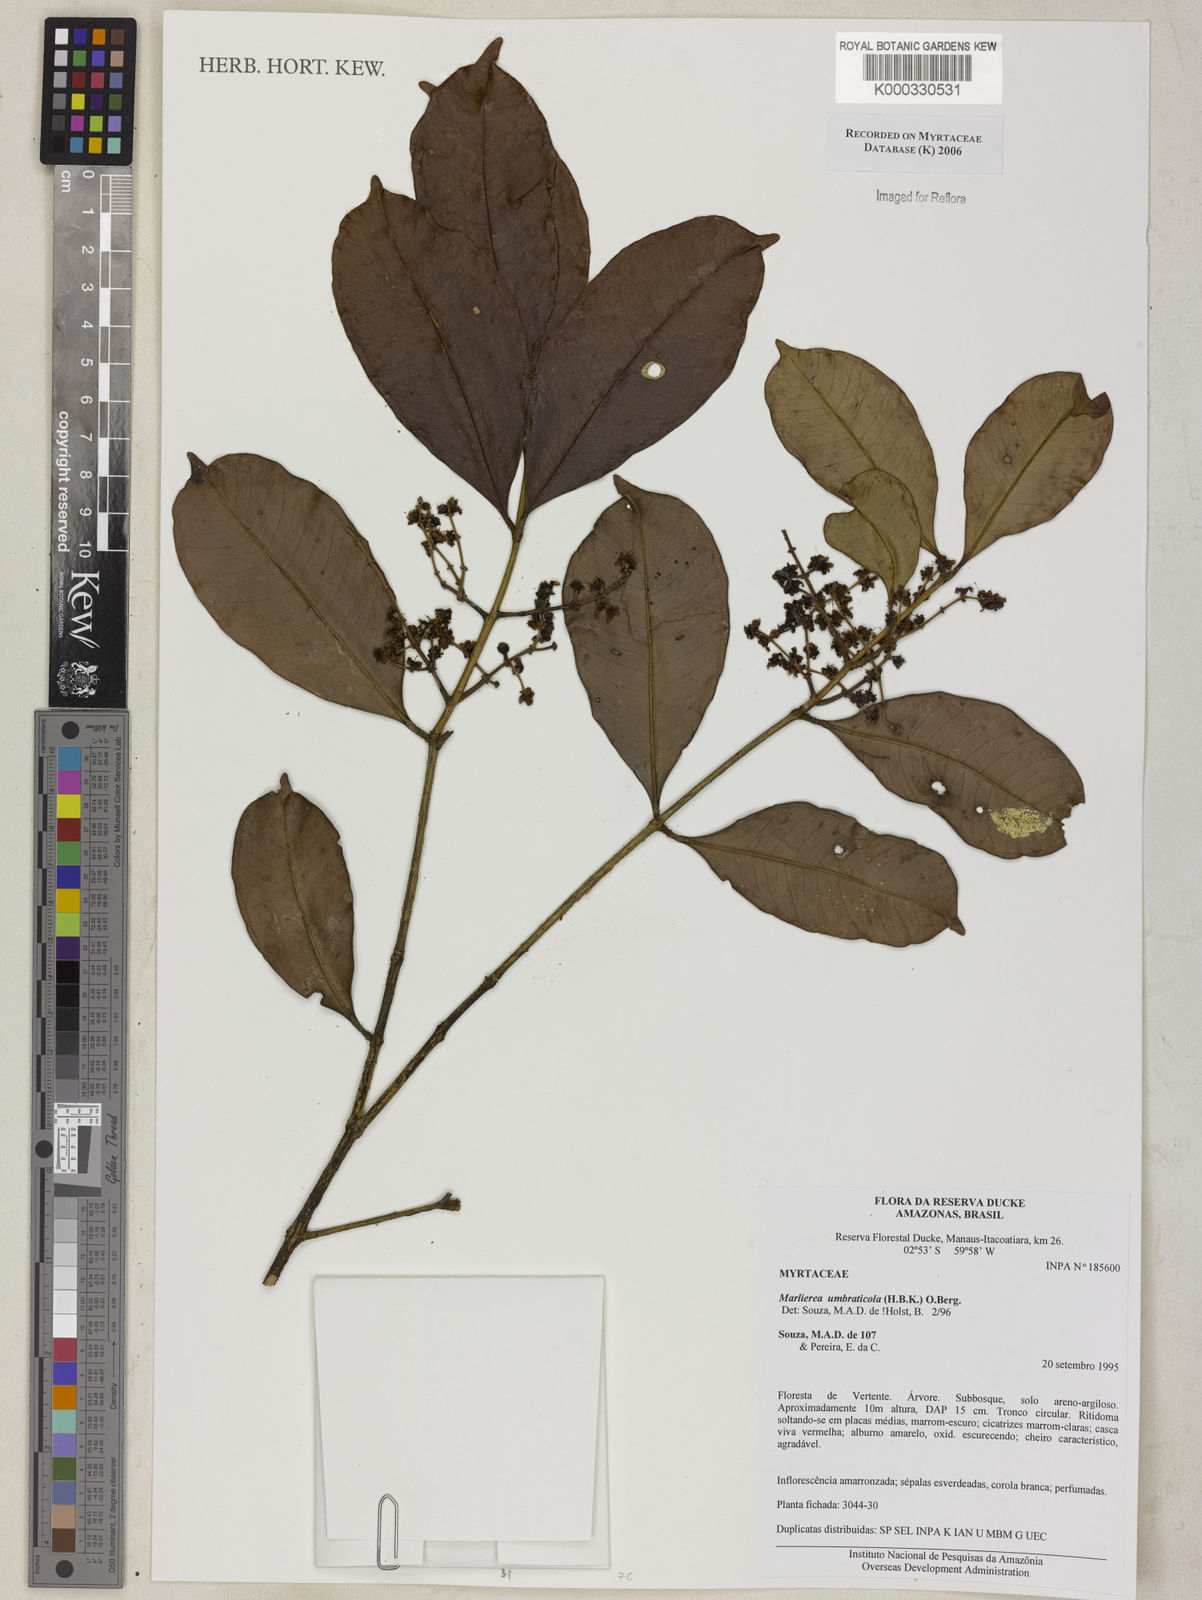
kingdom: Plantae
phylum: Tracheophyta
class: Magnoliopsida
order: Myrtales
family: Myrtaceae
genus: Myrcia
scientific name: Myrcia umbraticola
